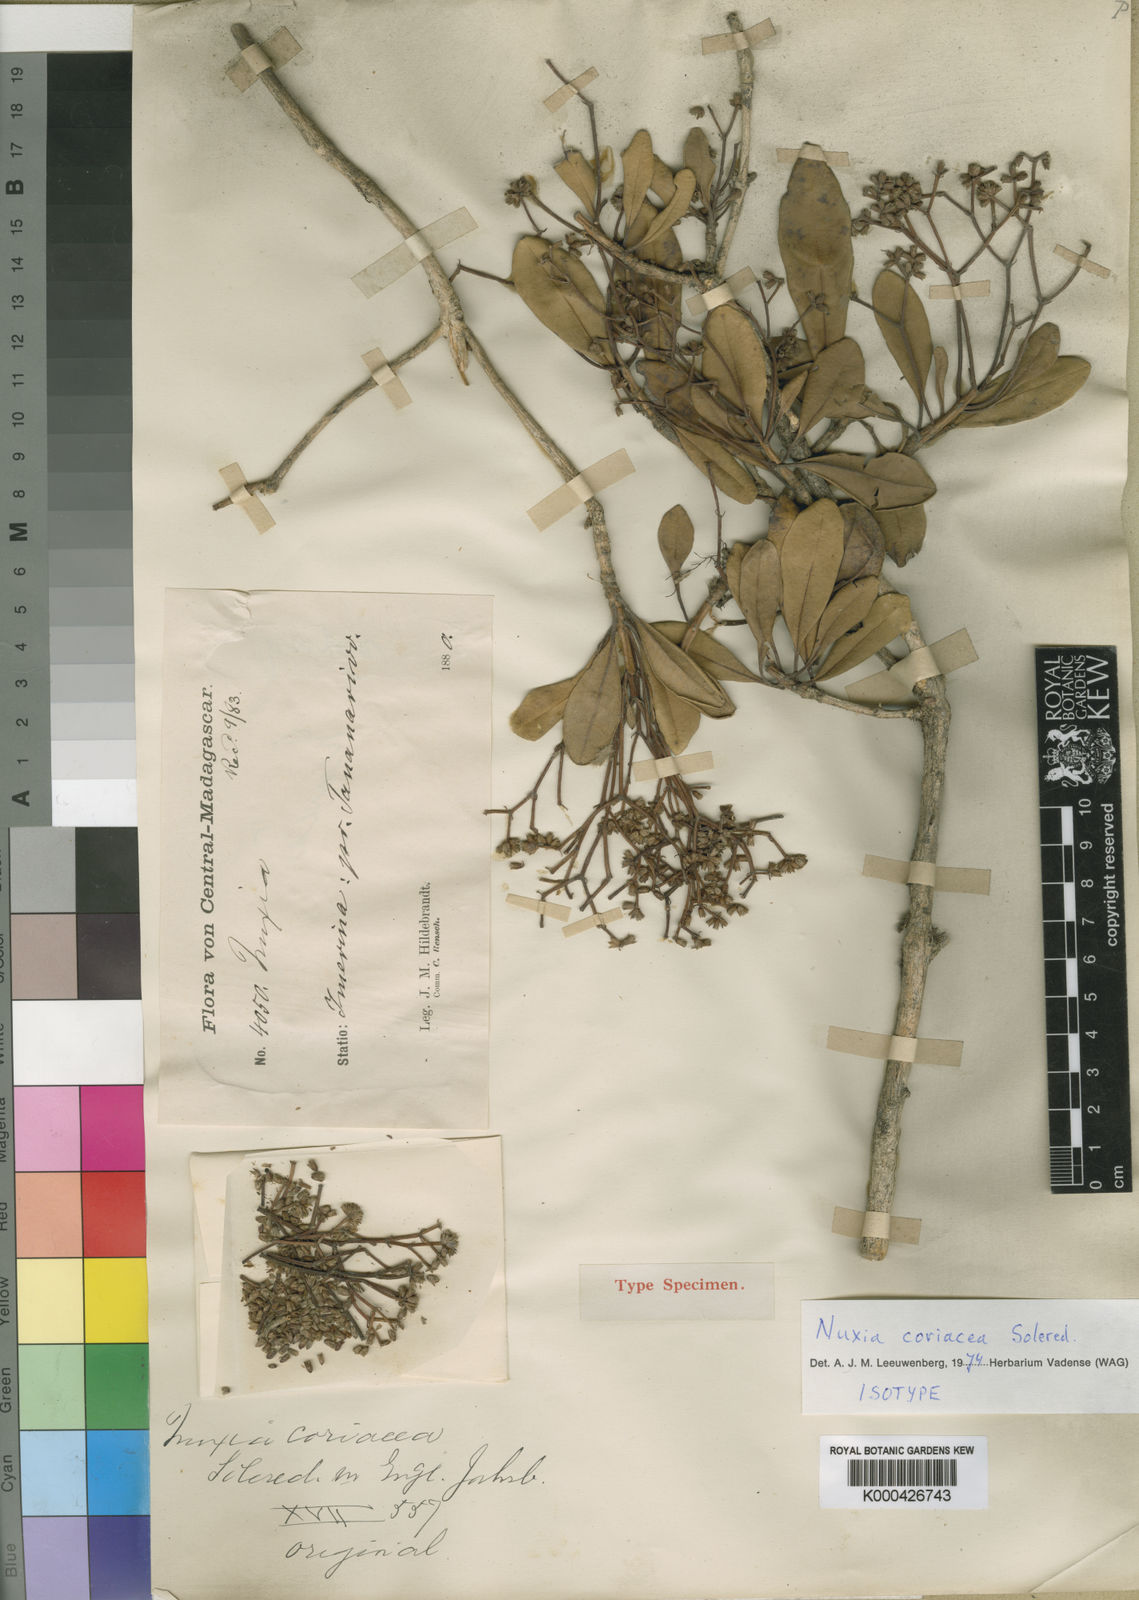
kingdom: Plantae
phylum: Tracheophyta
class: Magnoliopsida
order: Lamiales
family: Stilbaceae
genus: Nuxia
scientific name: Nuxia coriacea
